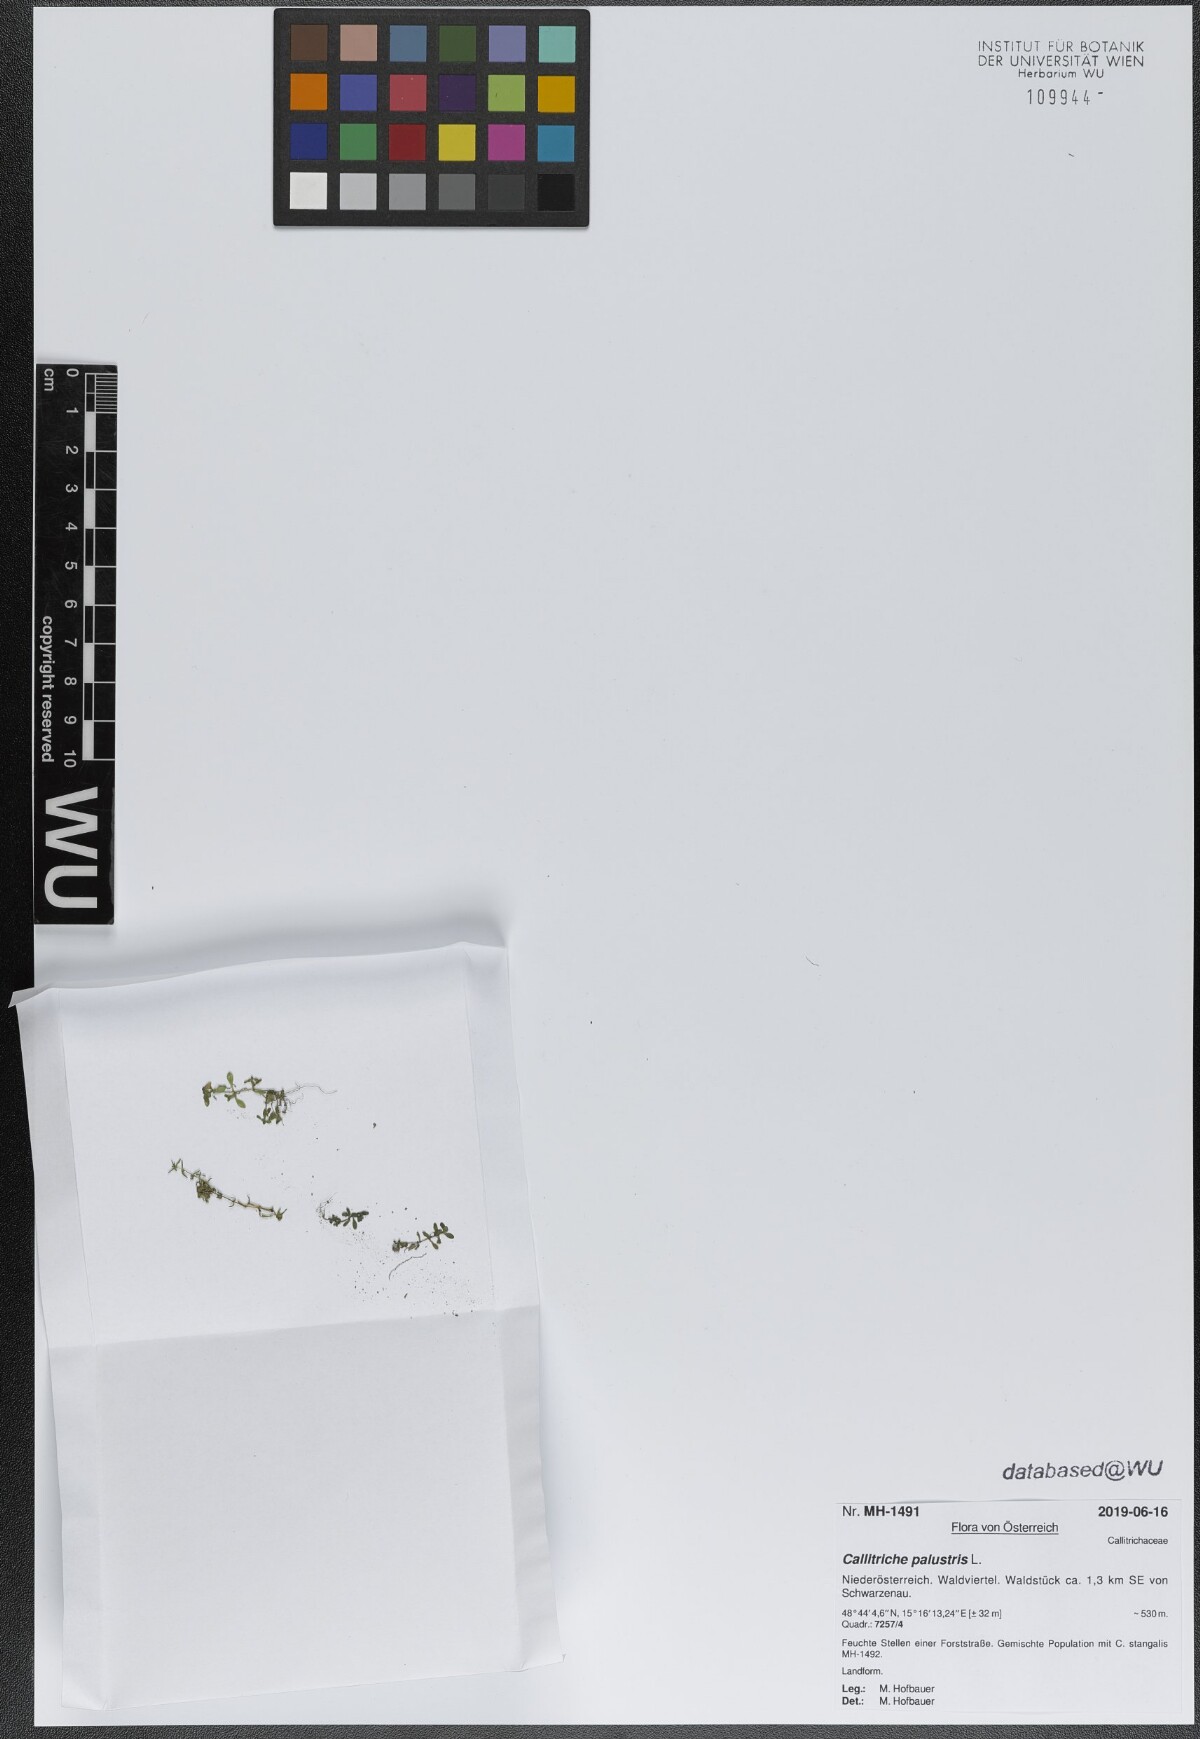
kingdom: Plantae
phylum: Tracheophyta
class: Magnoliopsida
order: Lamiales
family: Plantaginaceae
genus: Callitriche
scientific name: Callitriche palustris
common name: Spring water-starwort
